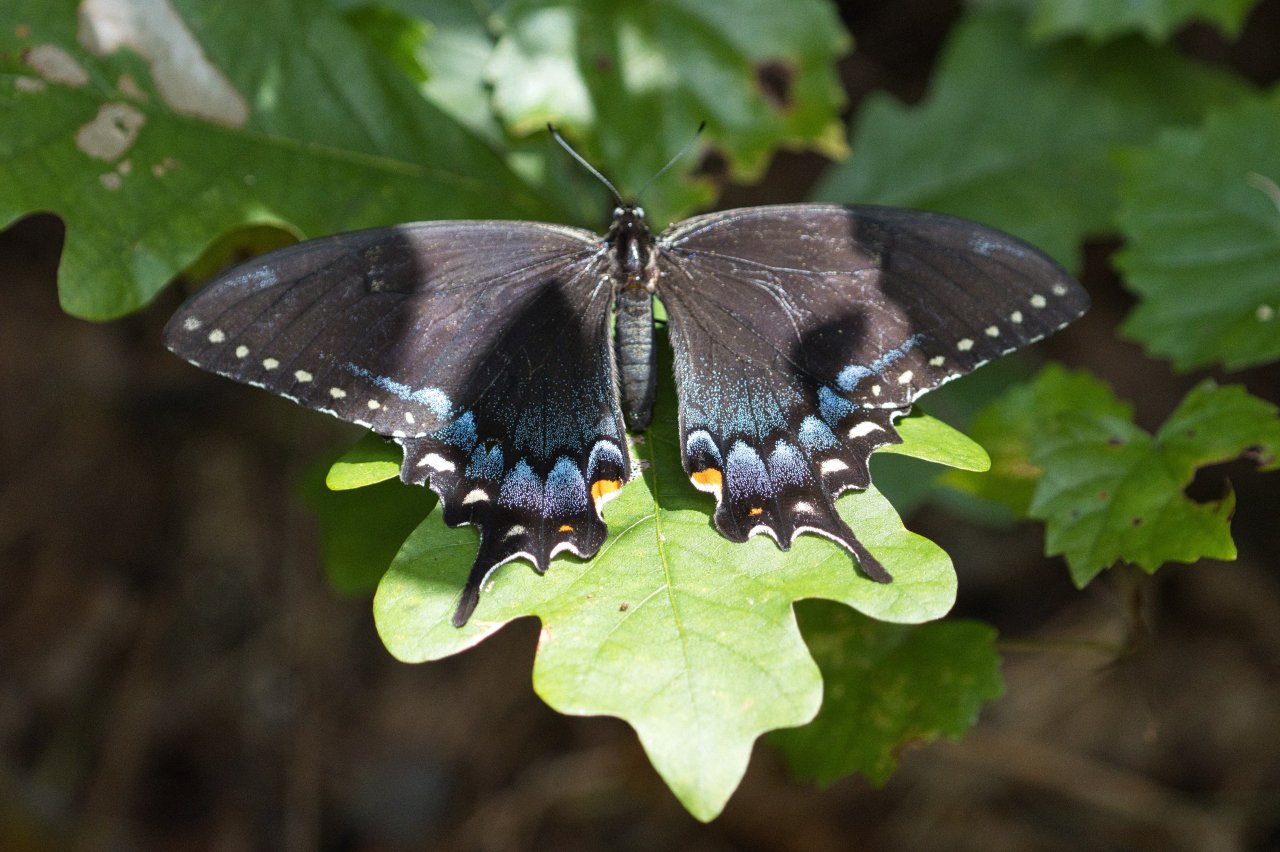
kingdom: Animalia
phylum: Arthropoda
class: Insecta
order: Lepidoptera
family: Papilionidae
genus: Pterourus
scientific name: Pterourus glaucus
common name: Eastern Tiger Swallowtail
